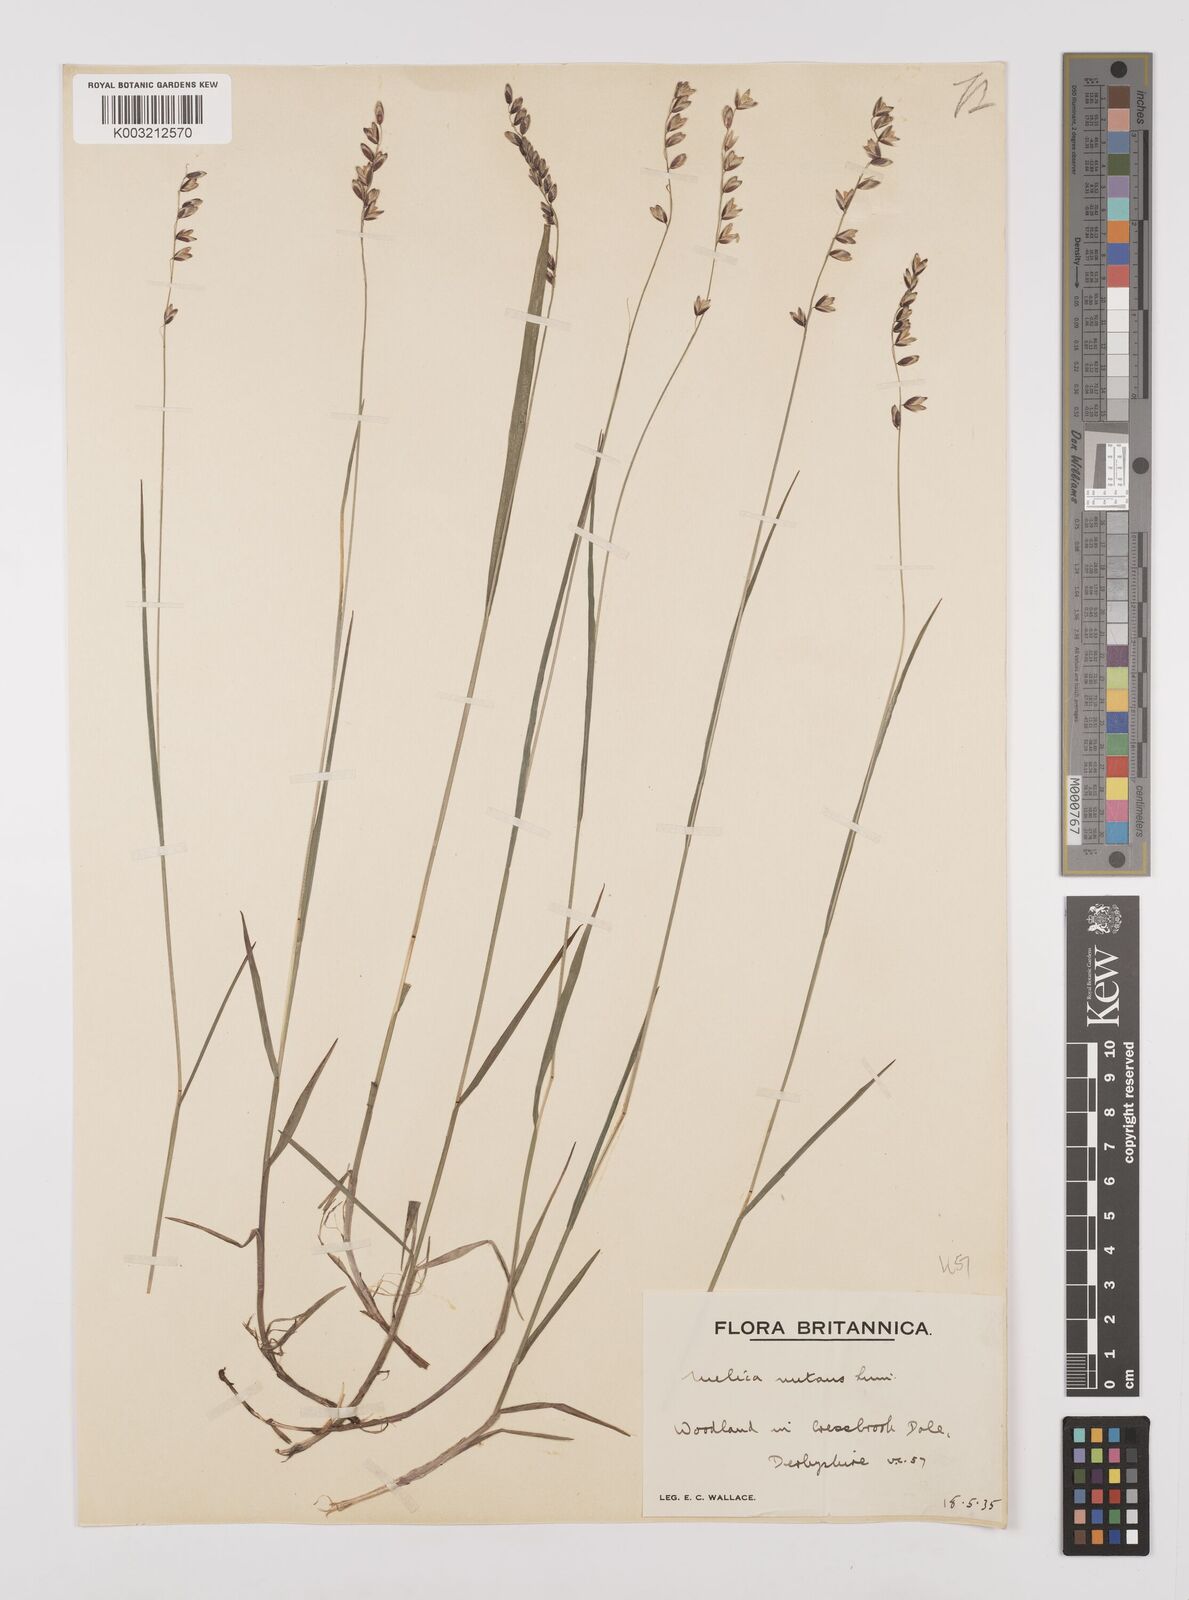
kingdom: Plantae
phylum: Tracheophyta
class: Liliopsida
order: Poales
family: Poaceae
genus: Melica
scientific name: Melica
